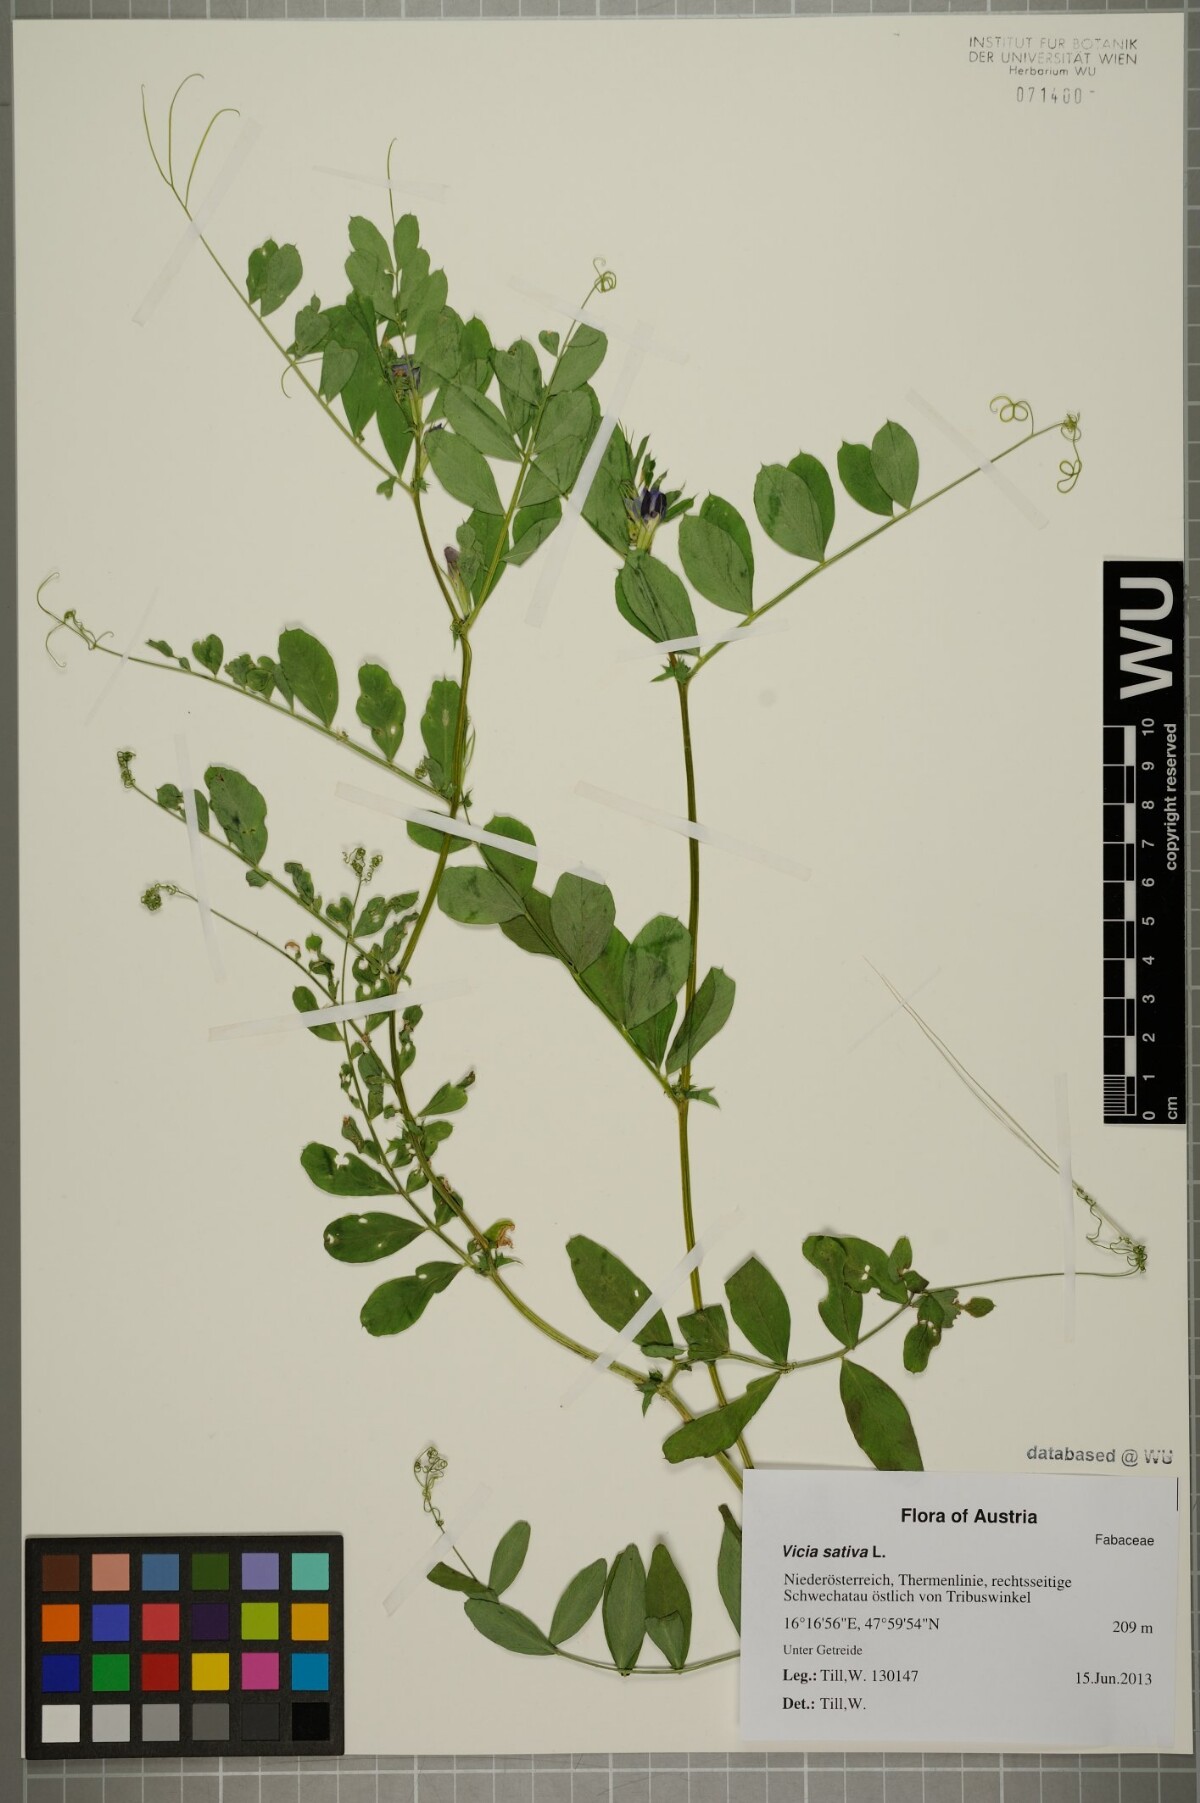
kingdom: Plantae
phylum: Tracheophyta
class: Magnoliopsida
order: Fabales
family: Fabaceae
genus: Vicia
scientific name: Vicia sativa
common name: Garden vetch
